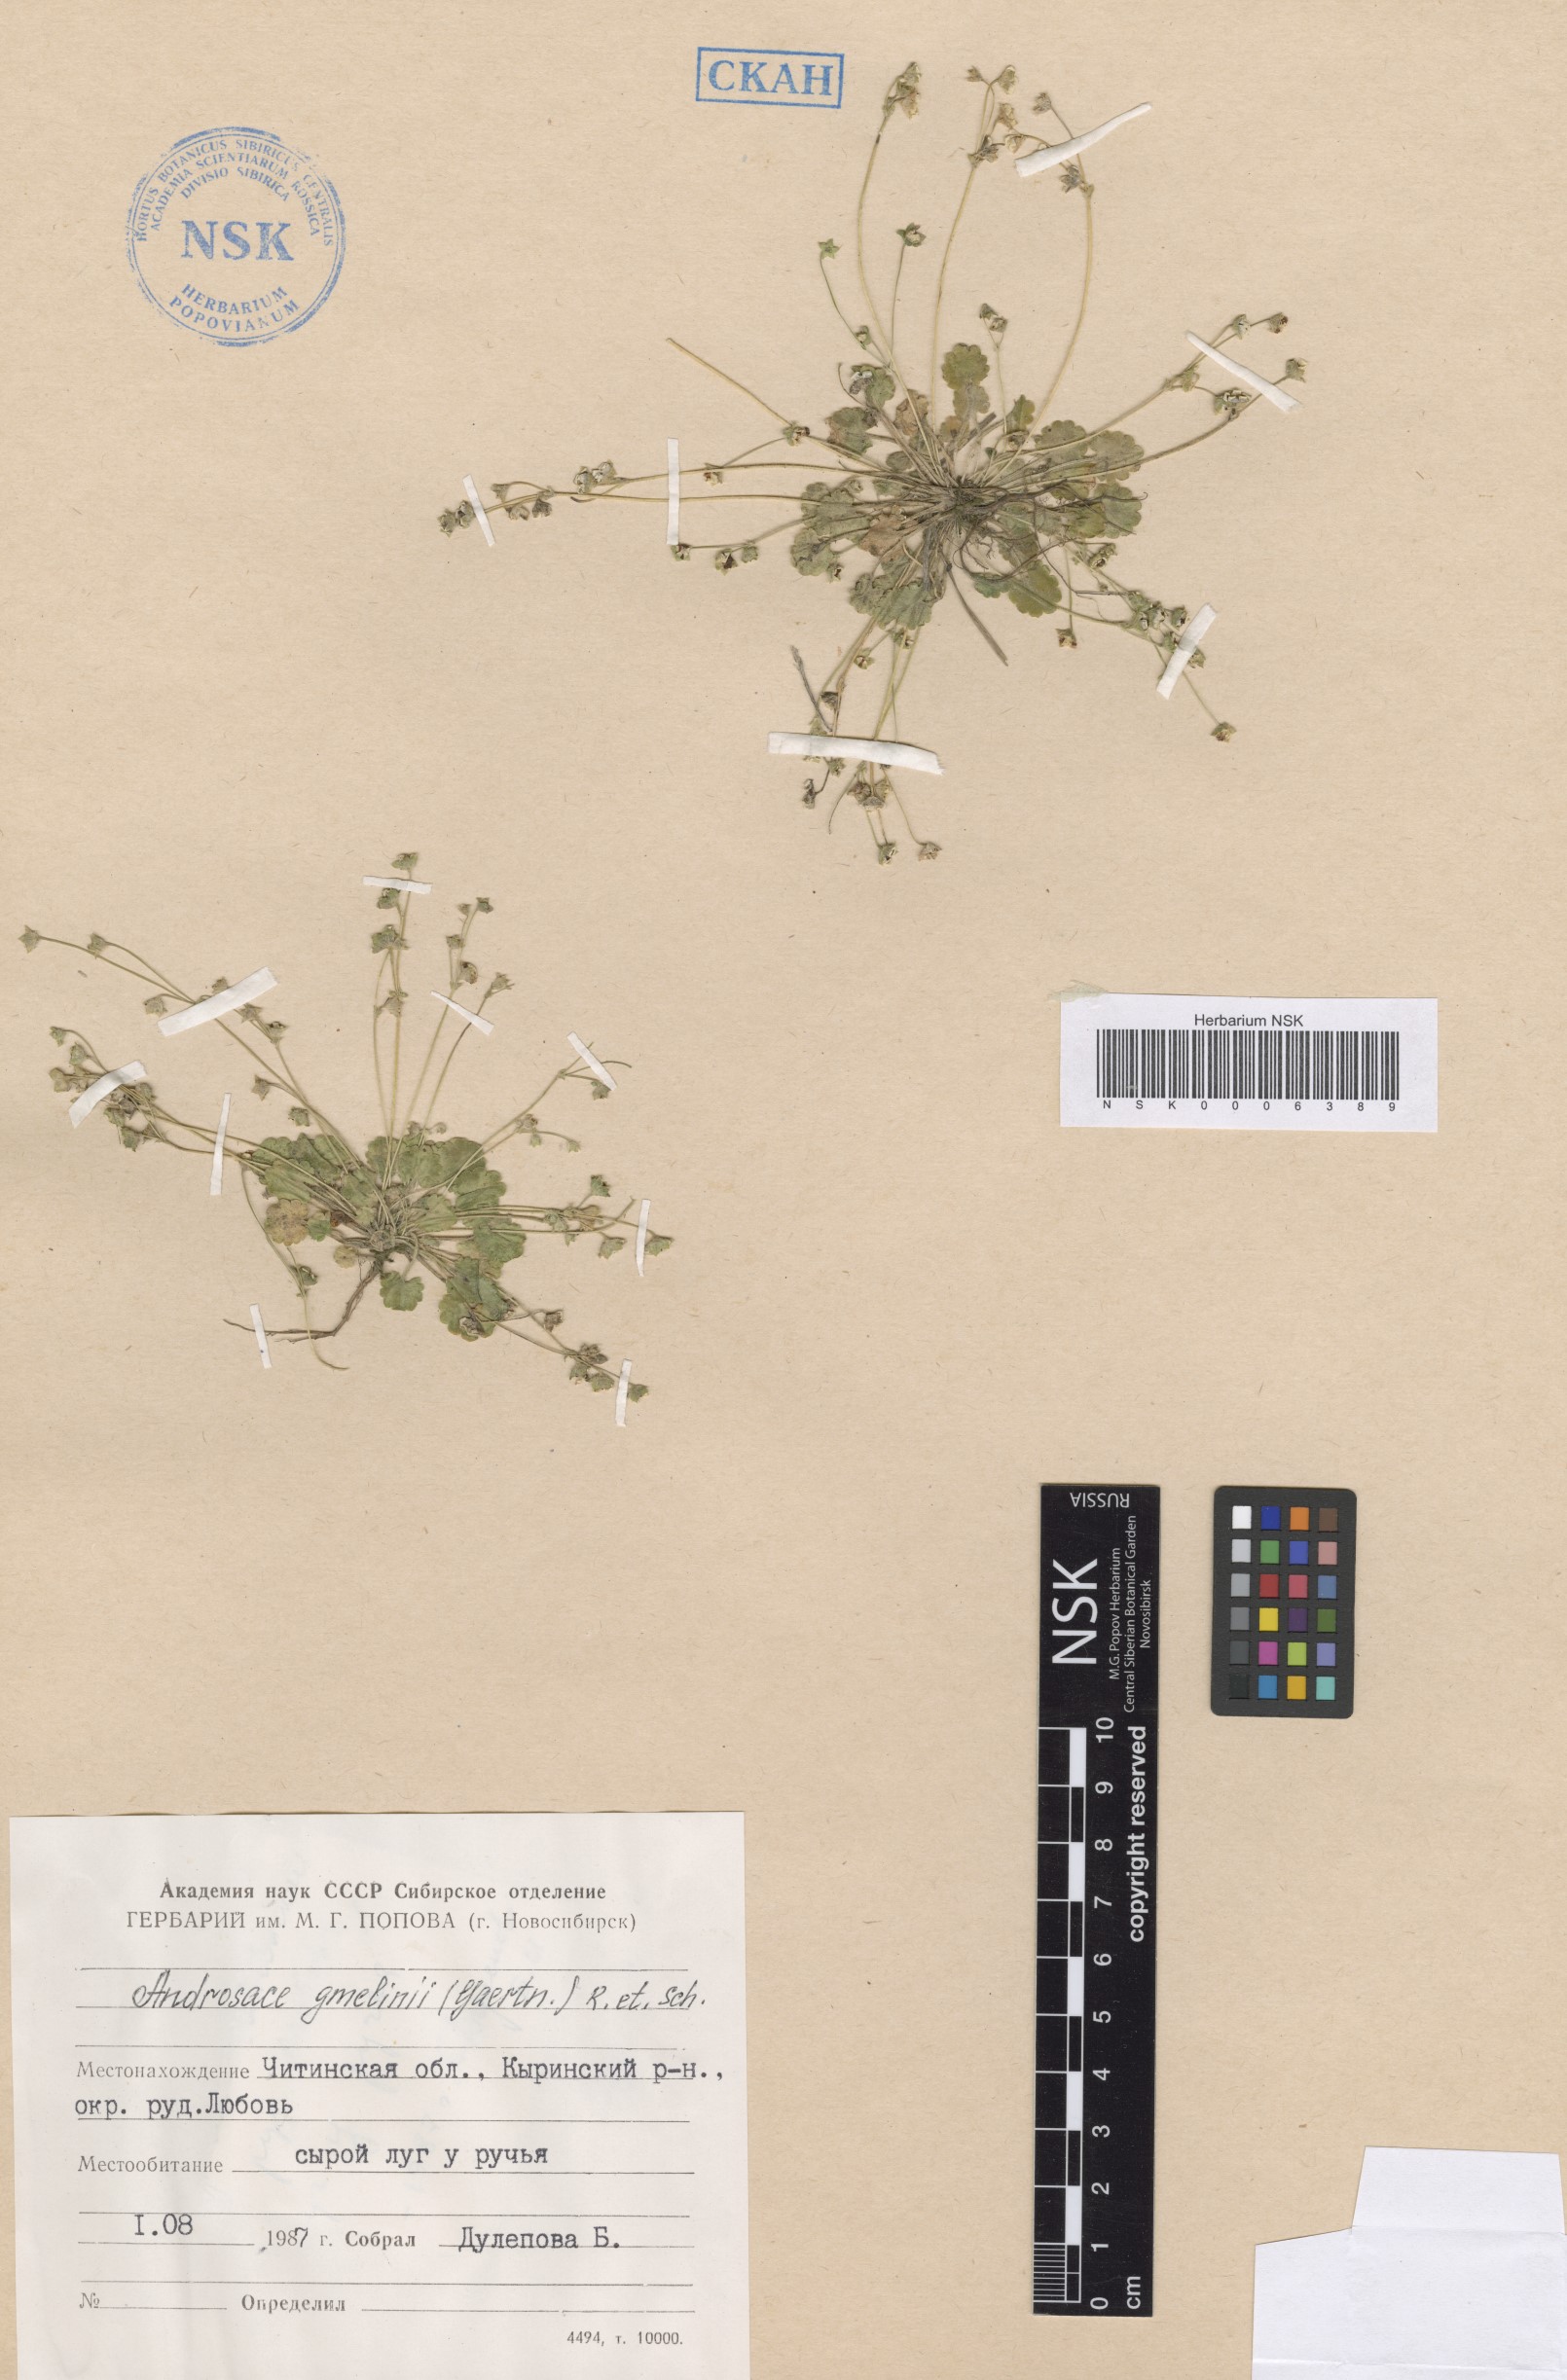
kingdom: Plantae
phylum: Tracheophyta
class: Magnoliopsida
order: Ericales
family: Primulaceae
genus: Androsace
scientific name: Androsace gmelinii
